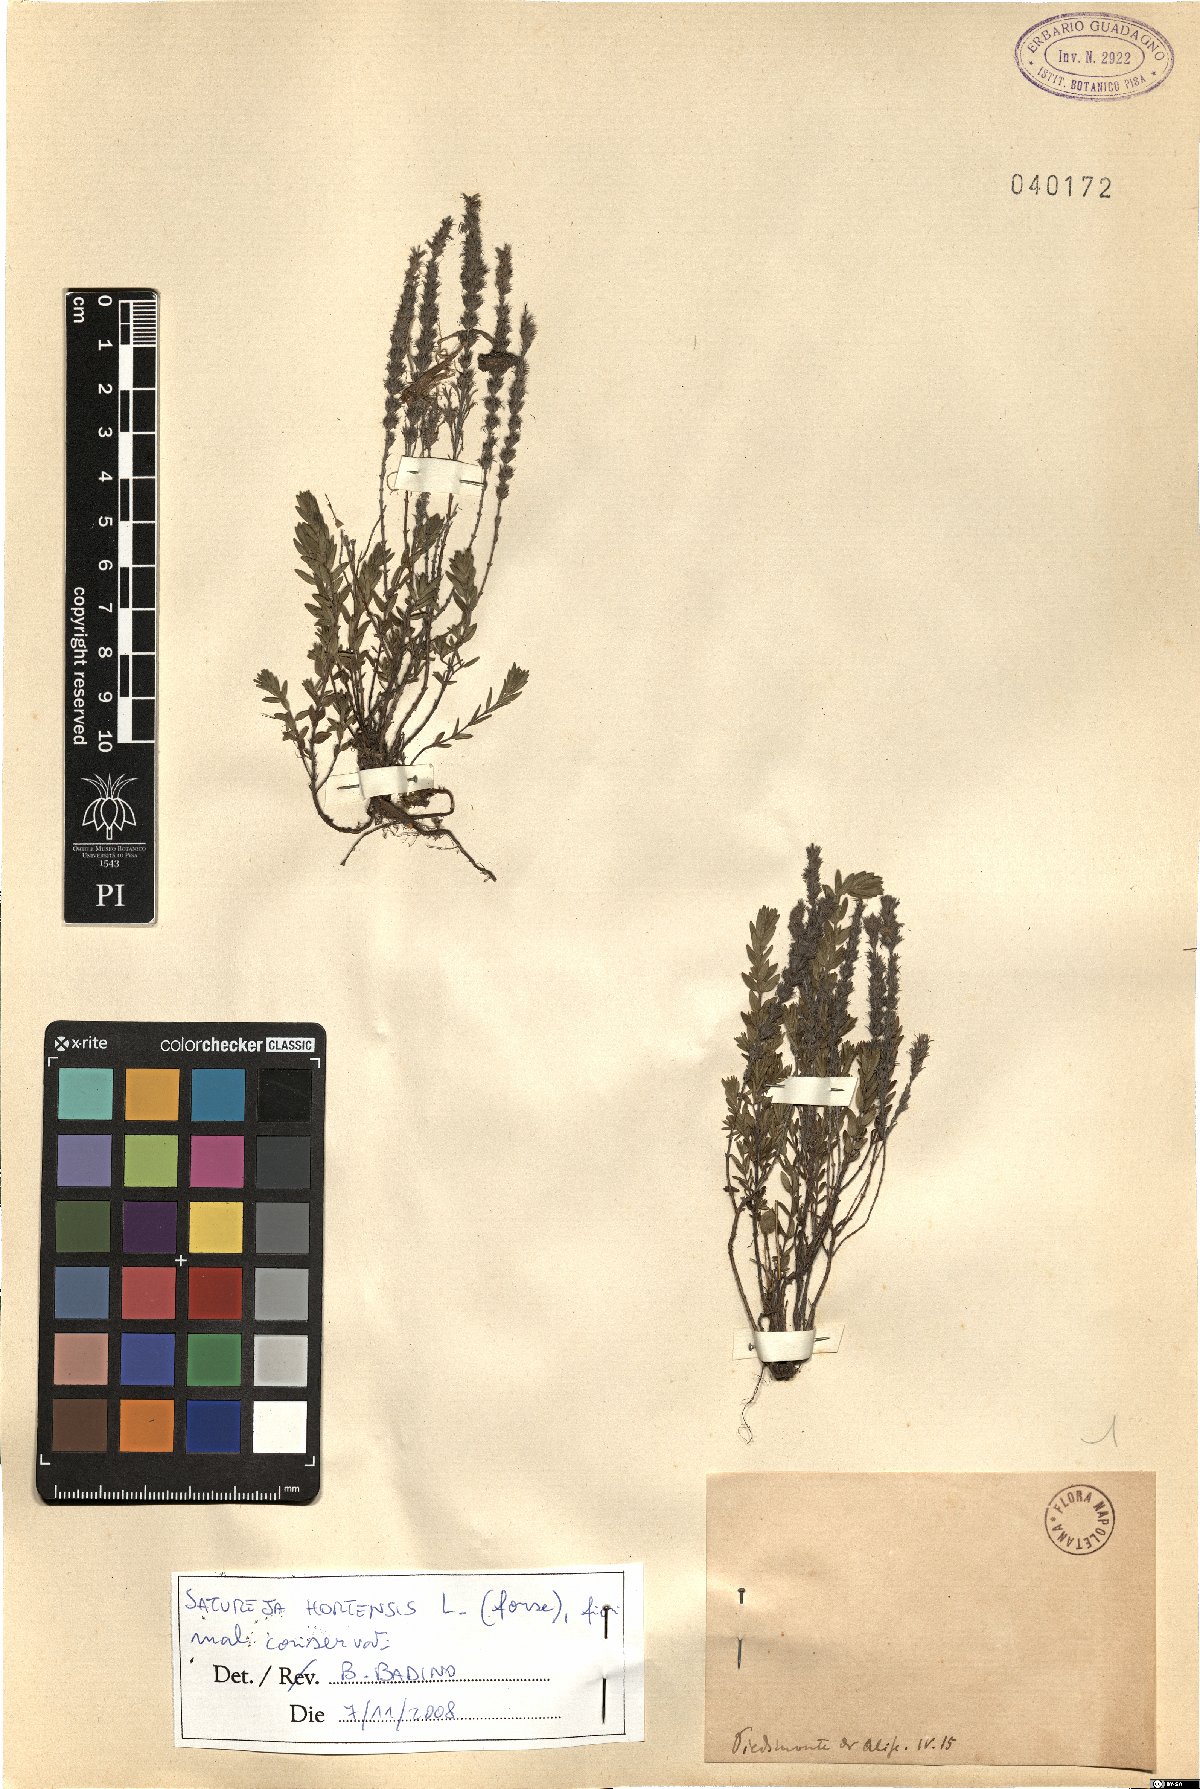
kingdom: Plantae
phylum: Tracheophyta
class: Magnoliopsida
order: Lamiales
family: Lamiaceae
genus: Satureja
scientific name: Satureja hortensis
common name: Summer savory
